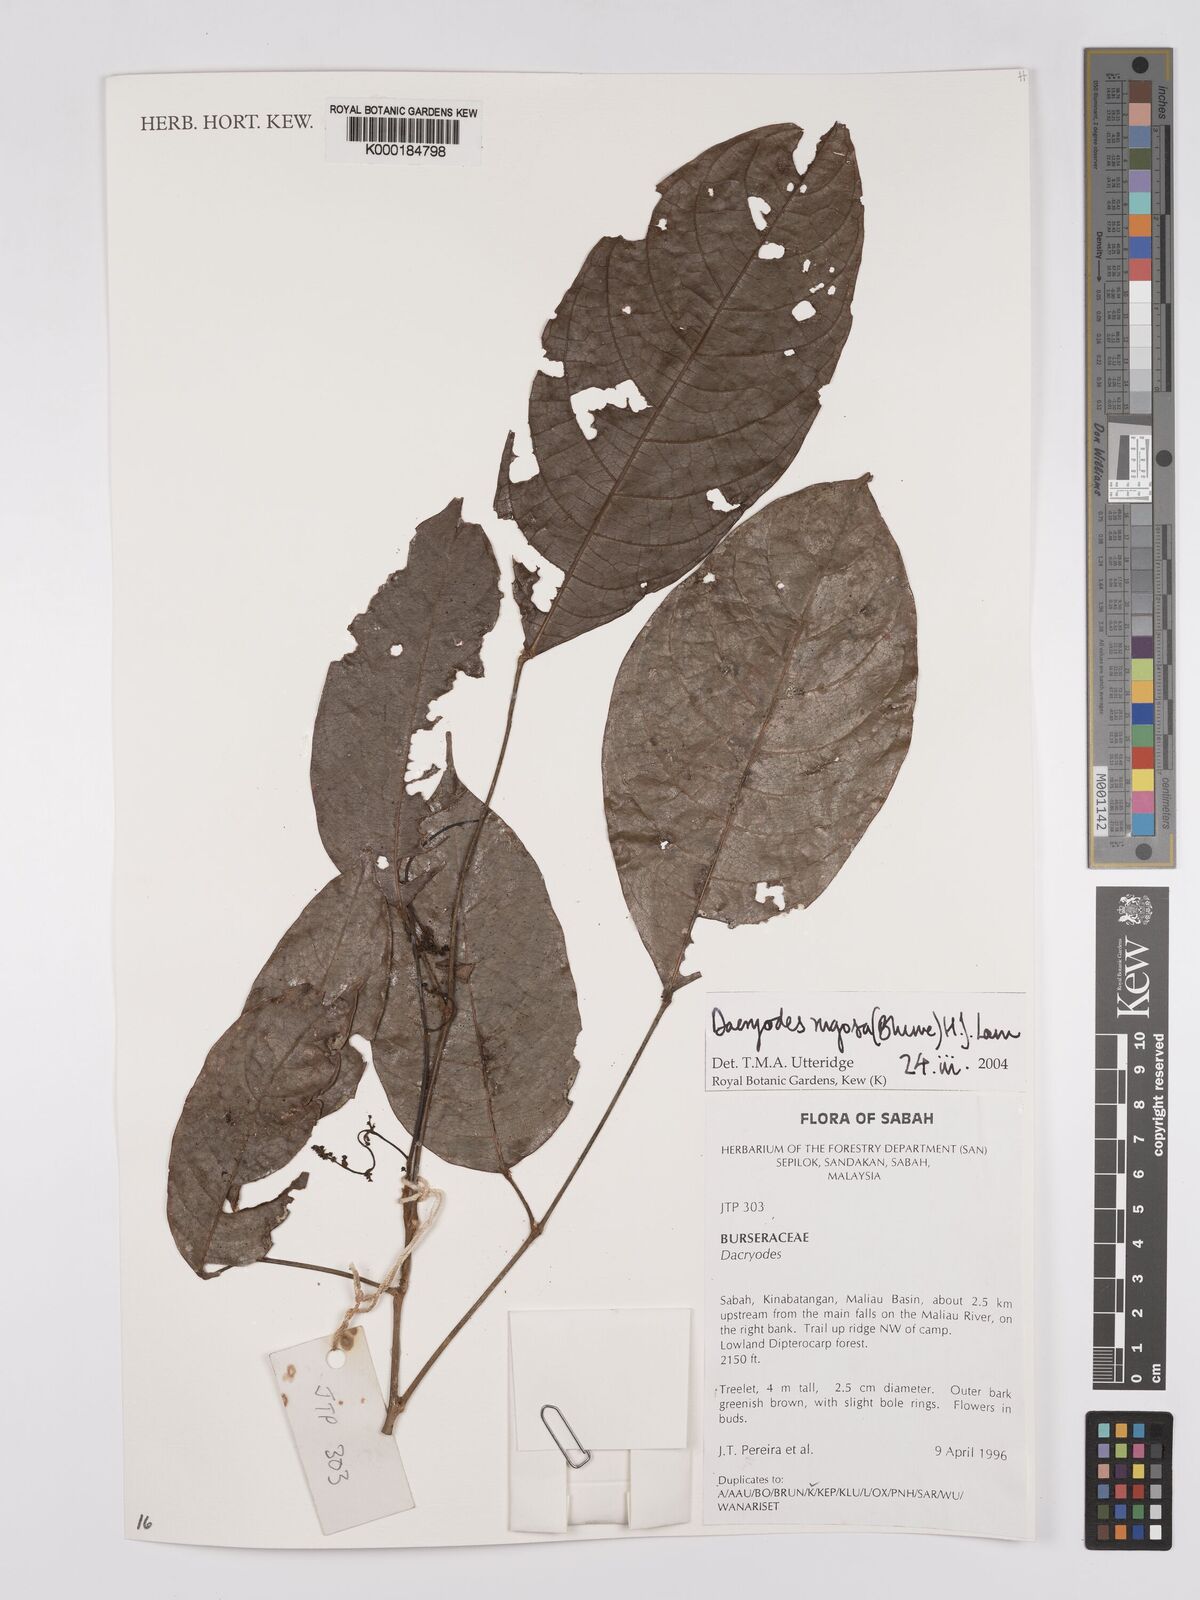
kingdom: Plantae
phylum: Tracheophyta
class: Magnoliopsida
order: Sapindales
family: Burseraceae
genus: Dacryodes
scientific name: Dacryodes rugosa
